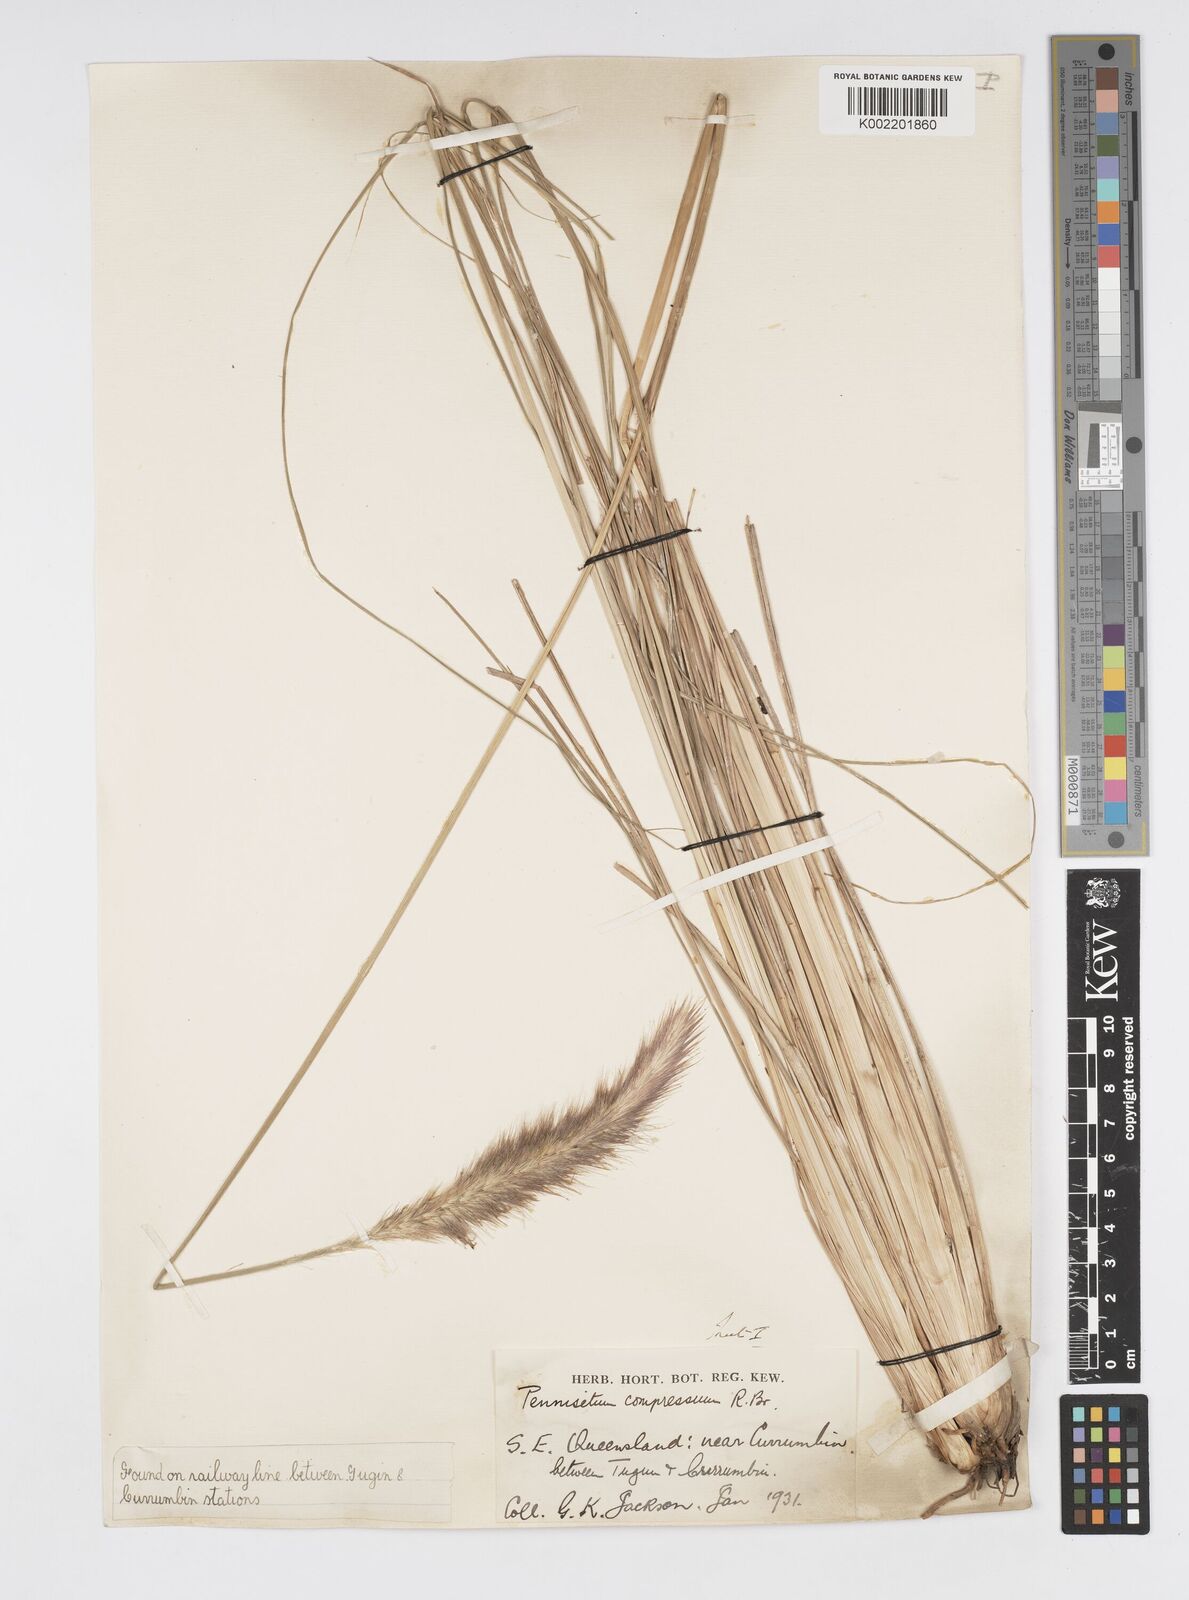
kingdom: Plantae
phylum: Tracheophyta
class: Liliopsida
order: Poales
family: Poaceae
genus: Cenchrus
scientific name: Cenchrus alopecuroides
